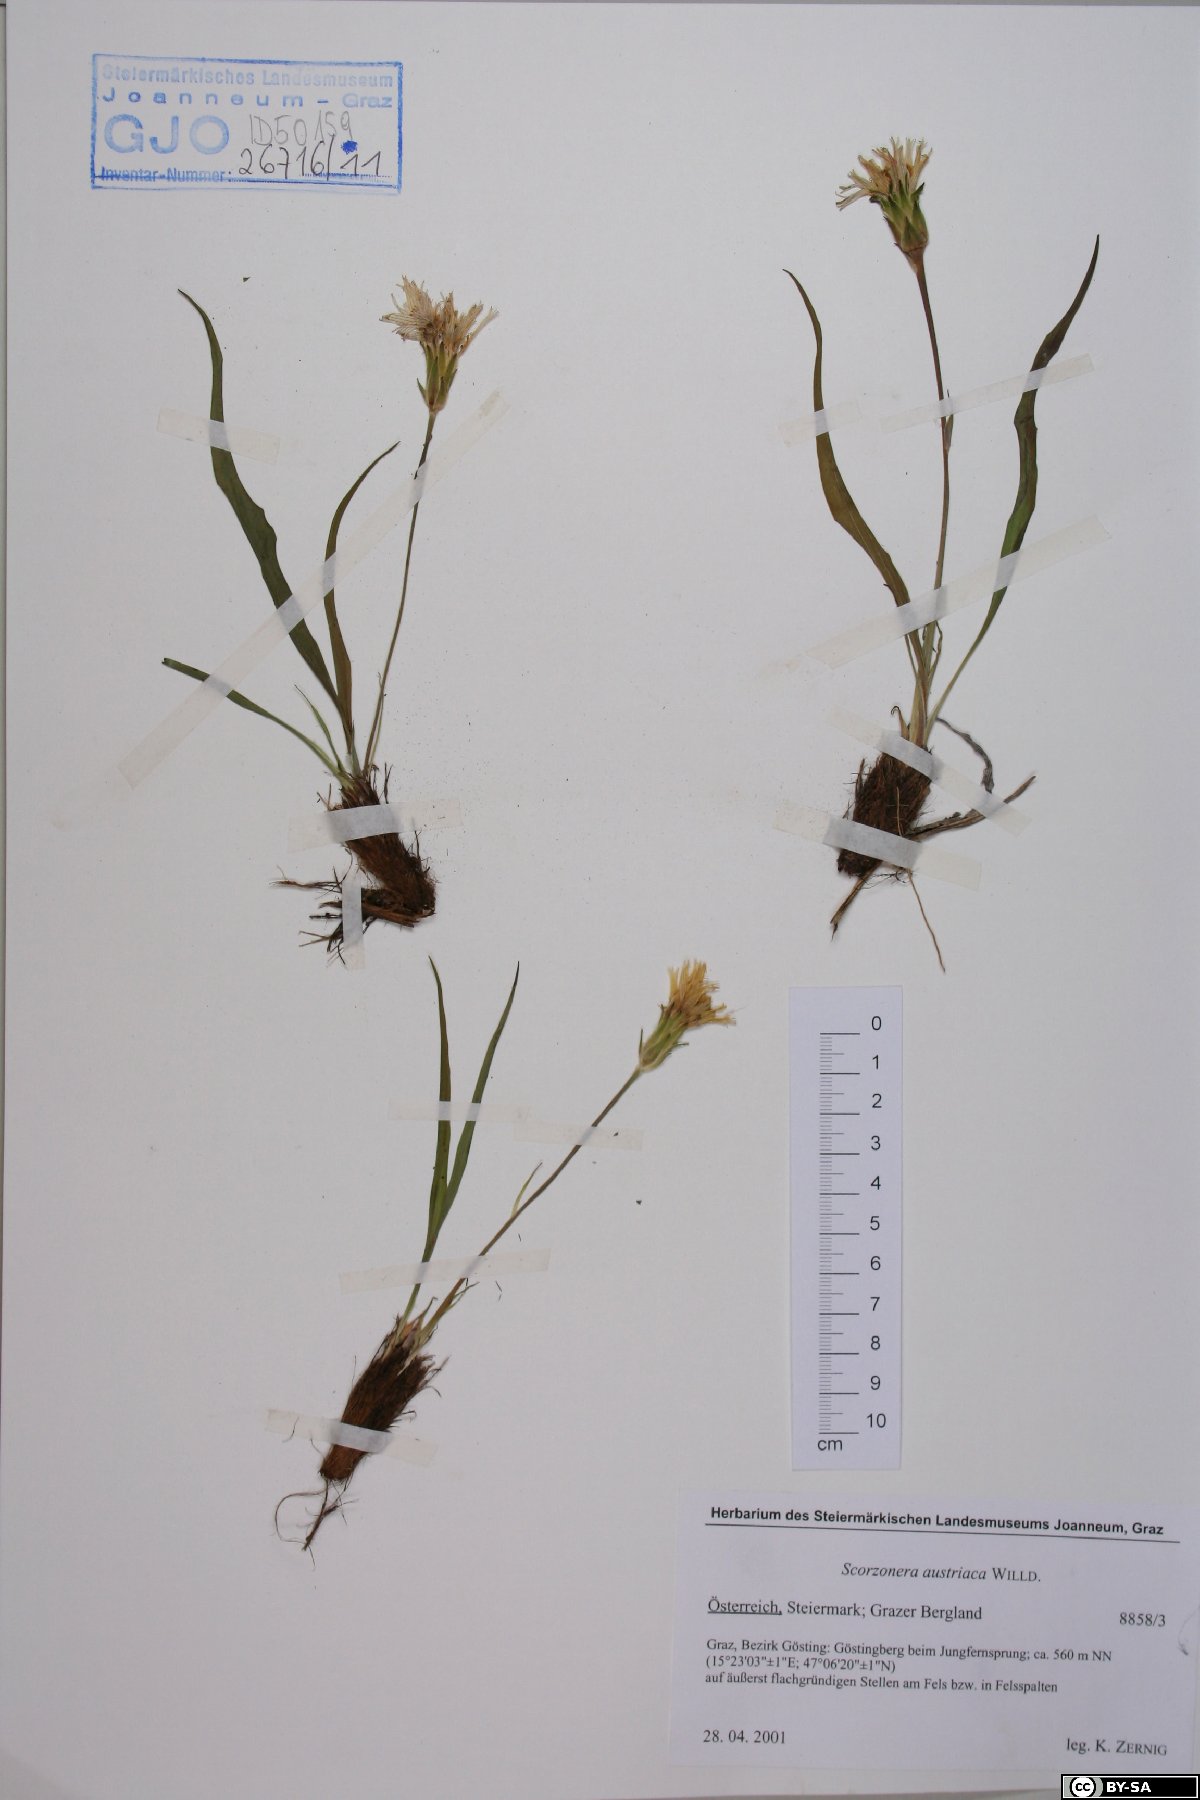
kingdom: Plantae
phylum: Tracheophyta
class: Magnoliopsida
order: Asterales
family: Asteraceae
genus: Takhtajaniantha
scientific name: Takhtajaniantha austriaca
